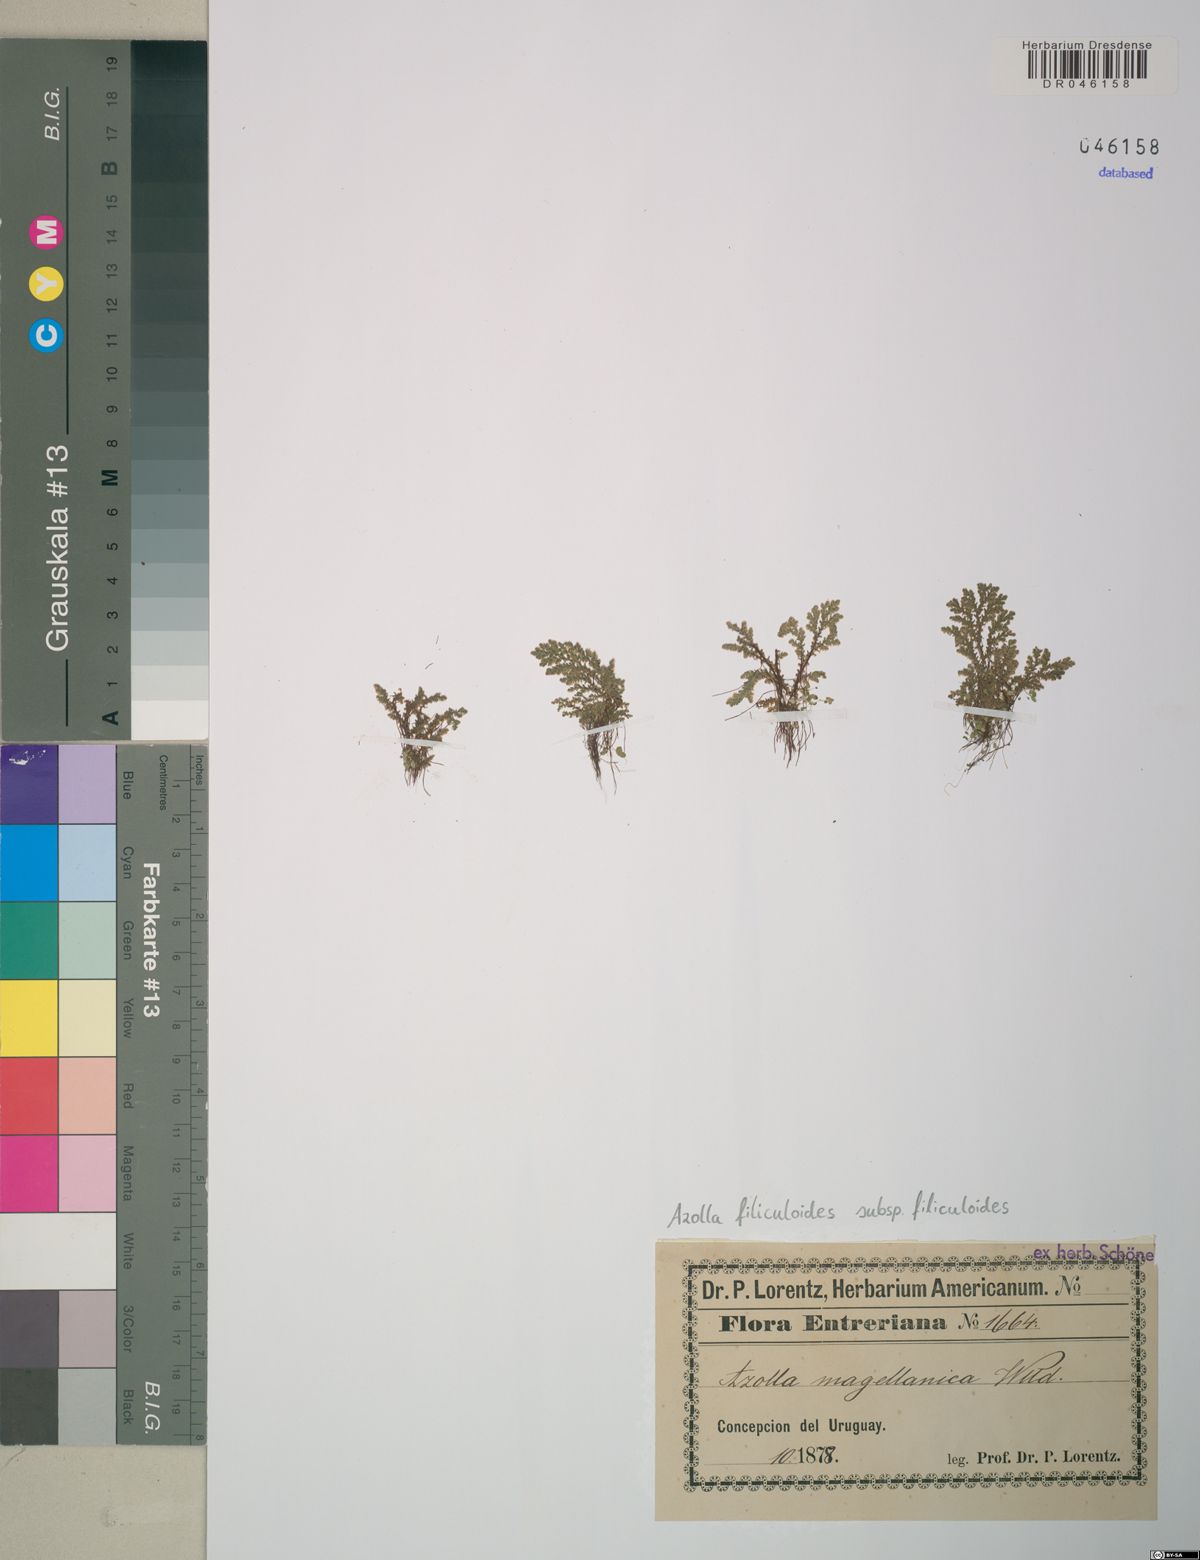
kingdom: Plantae
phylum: Tracheophyta
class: Polypodiopsida
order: Salviniales
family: Salviniaceae
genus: Azolla
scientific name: Azolla filiculoides
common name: Water fern
